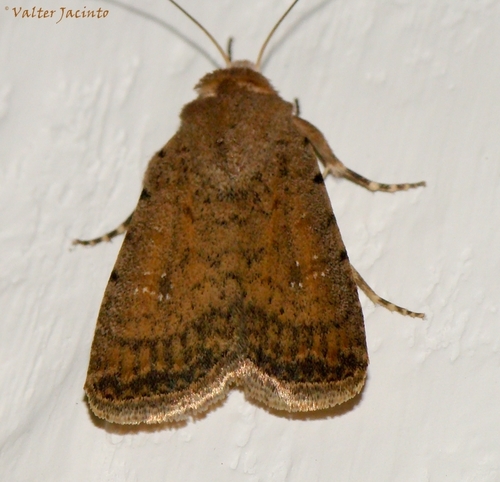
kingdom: Animalia
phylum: Arthropoda
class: Insecta
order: Lepidoptera
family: Noctuidae
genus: Caradrina
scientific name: Caradrina flavirena
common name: Lorimer's rustic
